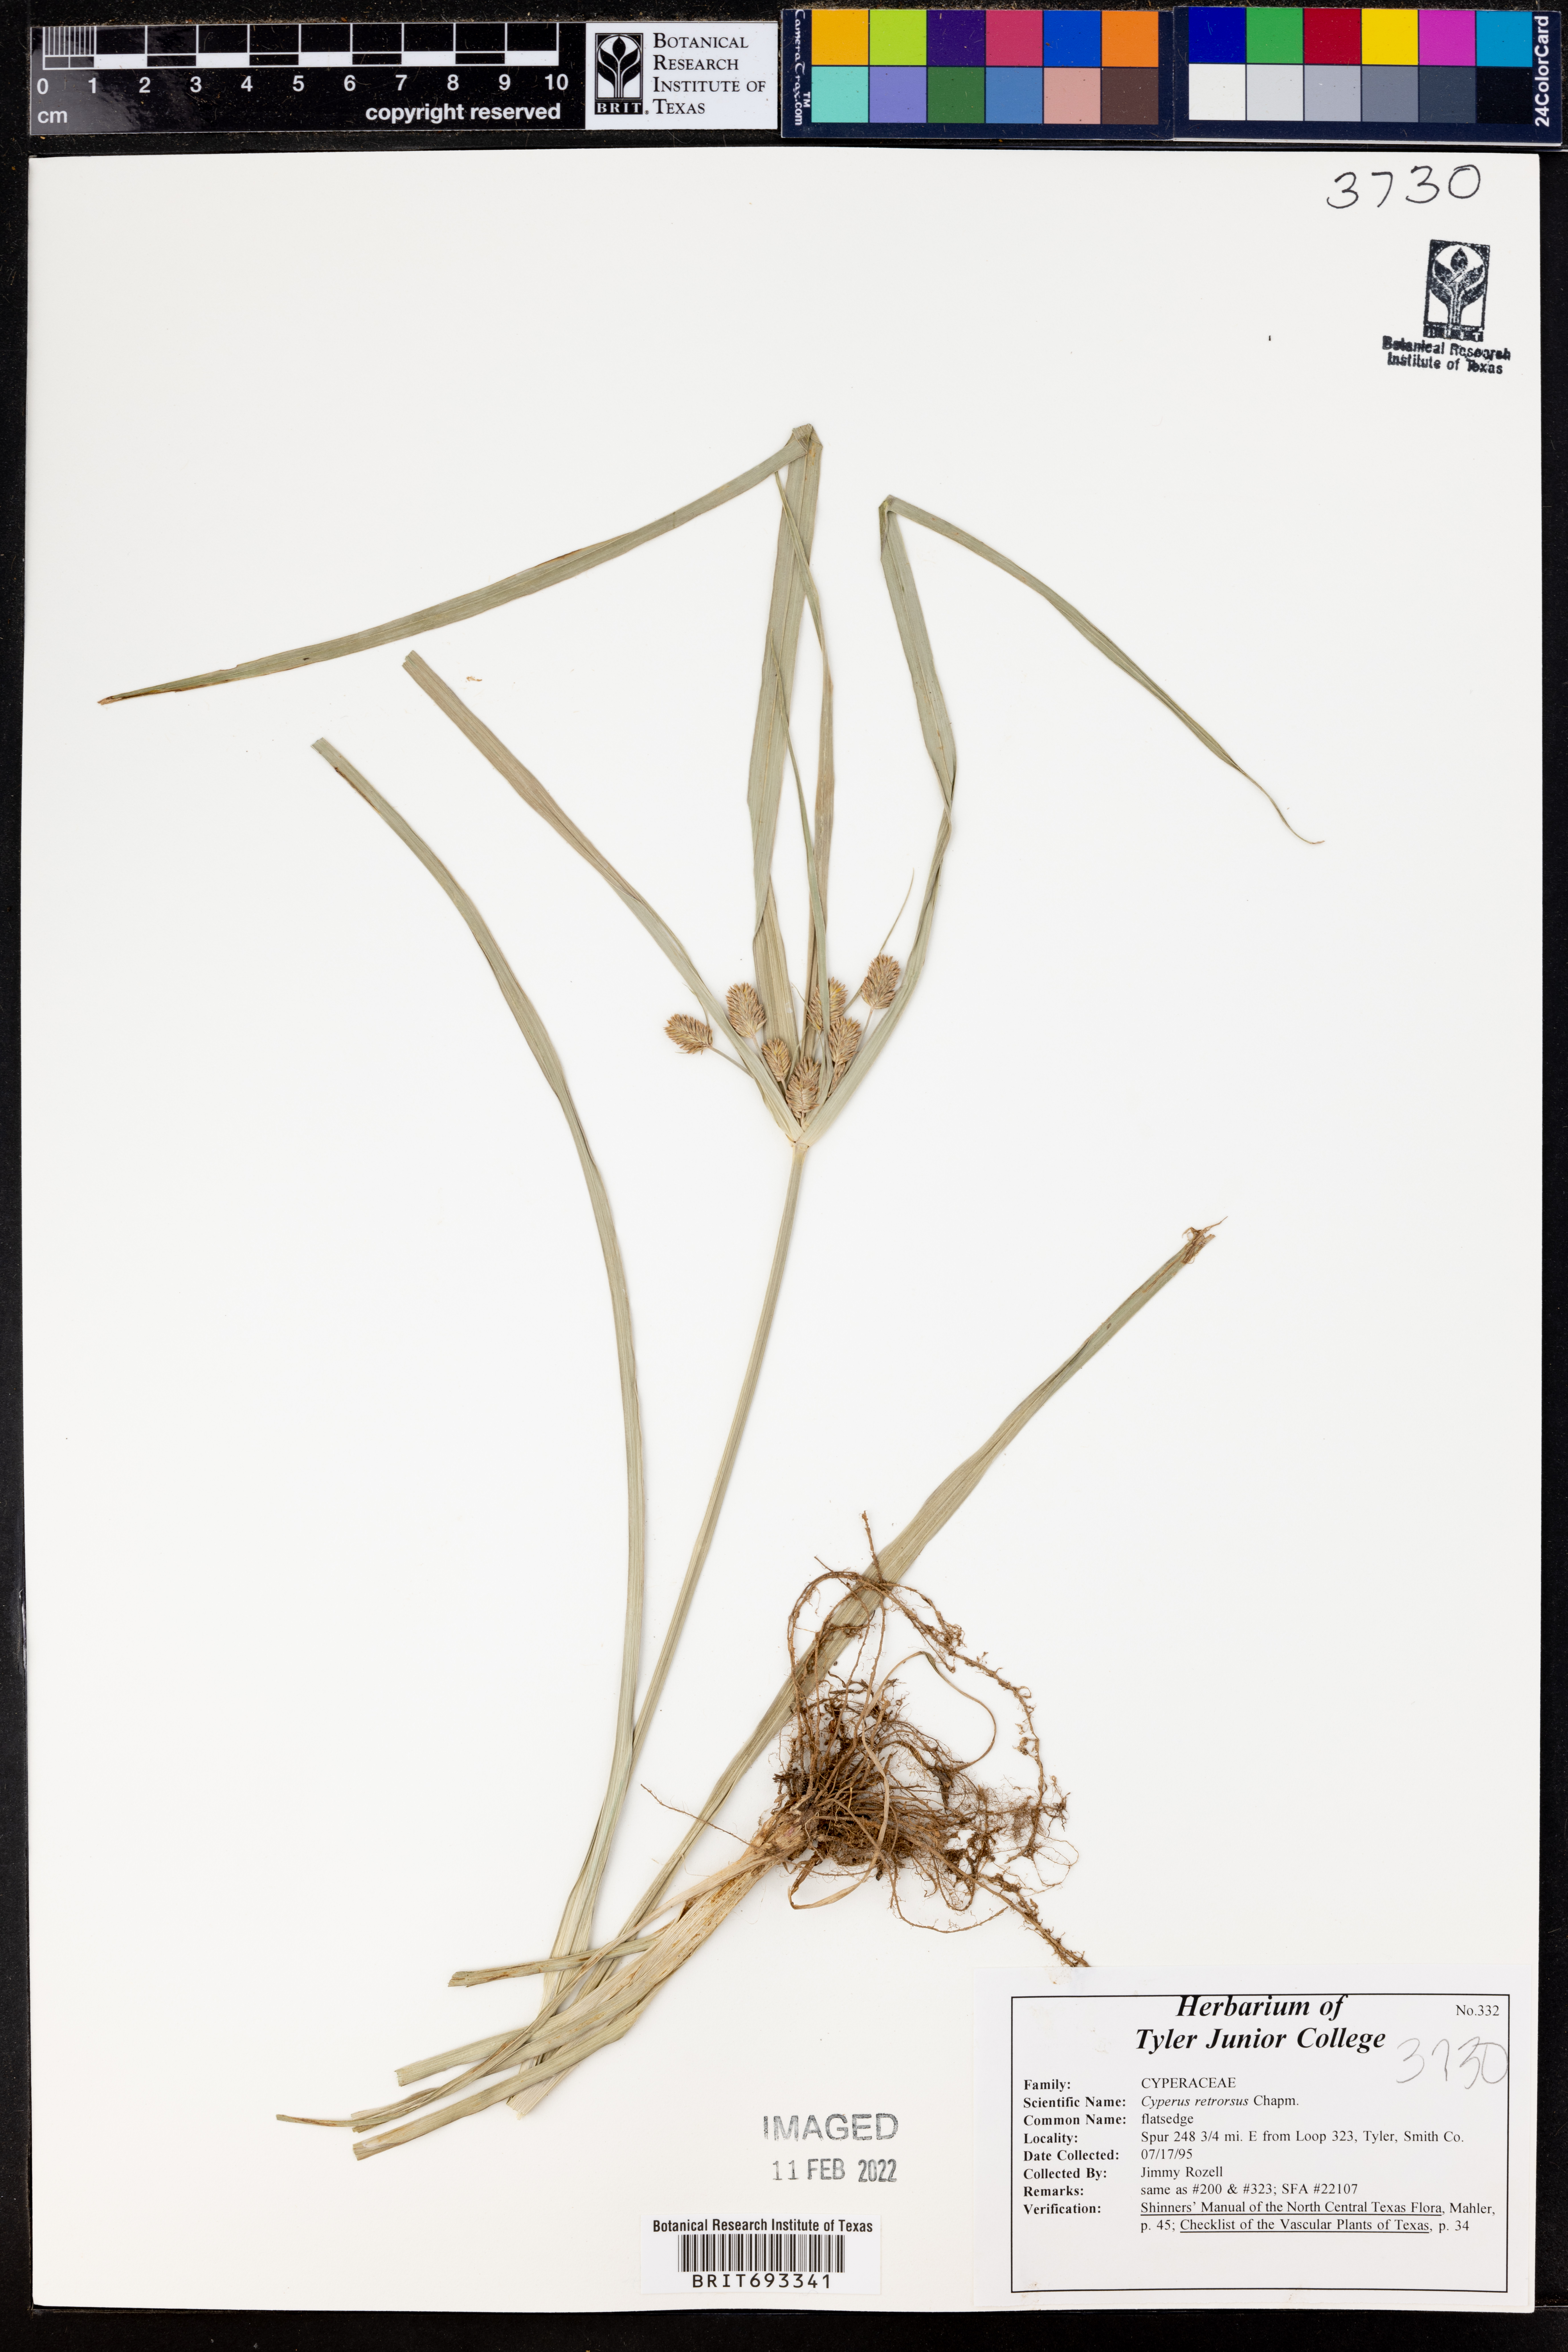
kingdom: Plantae
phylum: Tracheophyta
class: Liliopsida
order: Poales
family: Cyperaceae
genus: Cyperus
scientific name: Cyperus retrorsus
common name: Pinebarren flat sedge
